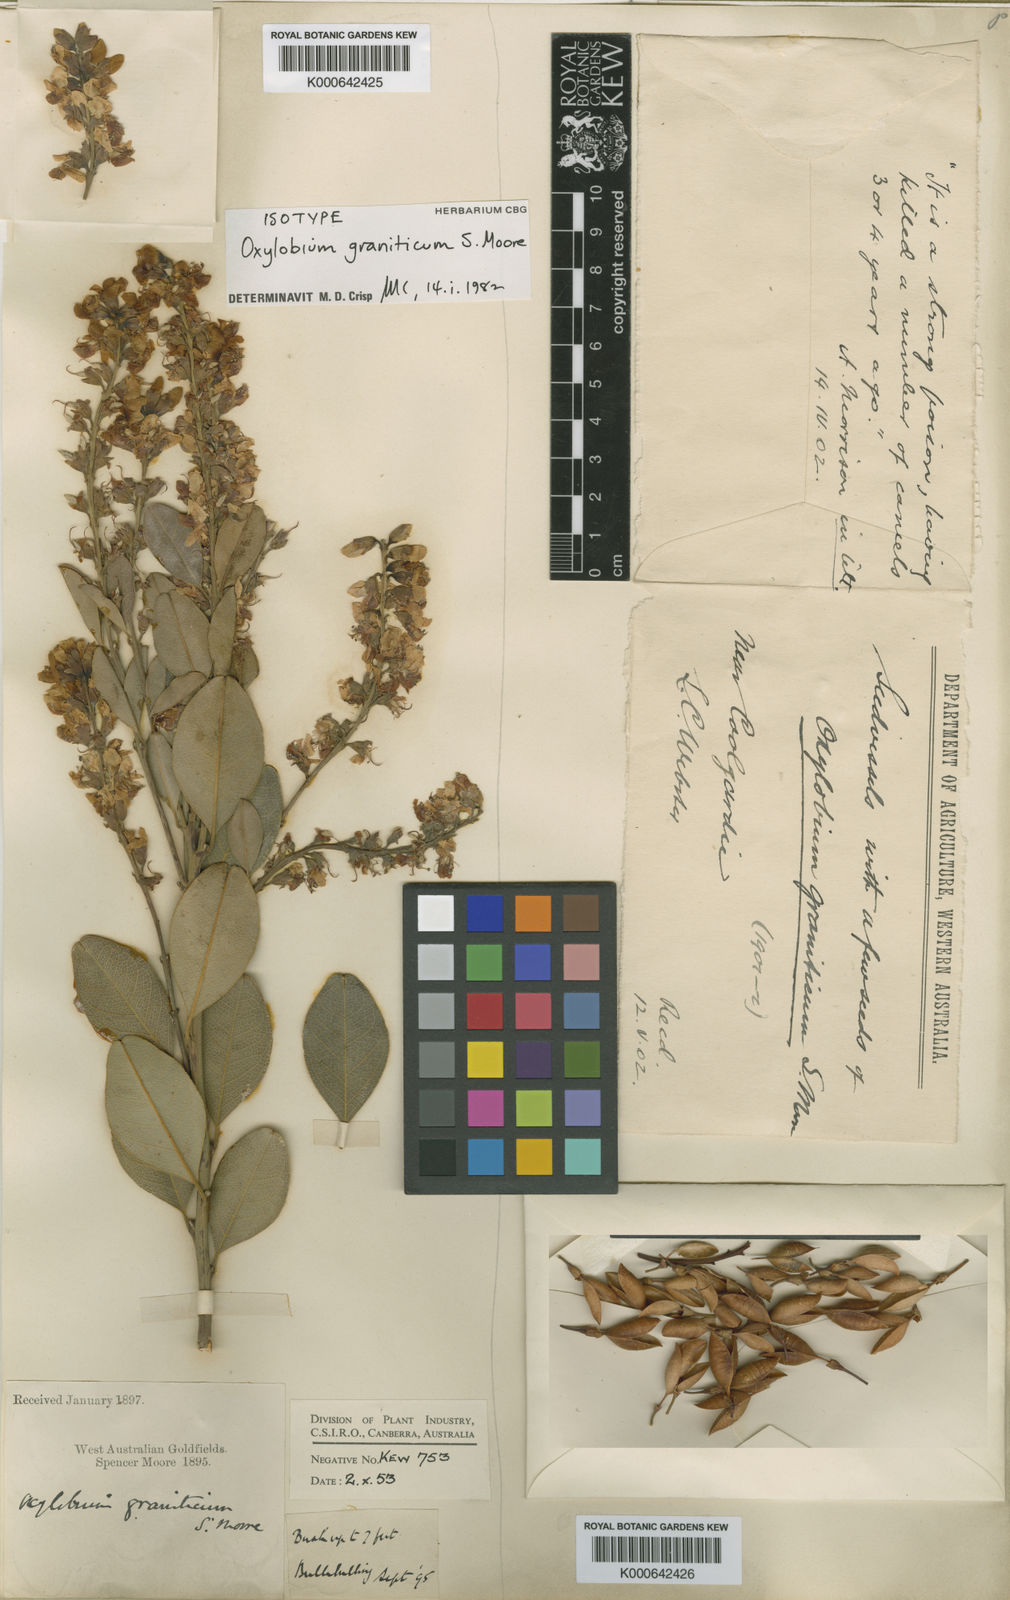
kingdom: Plantae
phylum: Tracheophyta
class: Magnoliopsida
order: Fabales
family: Fabaceae
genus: Gastrolobium
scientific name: Gastrolobium graniticum
